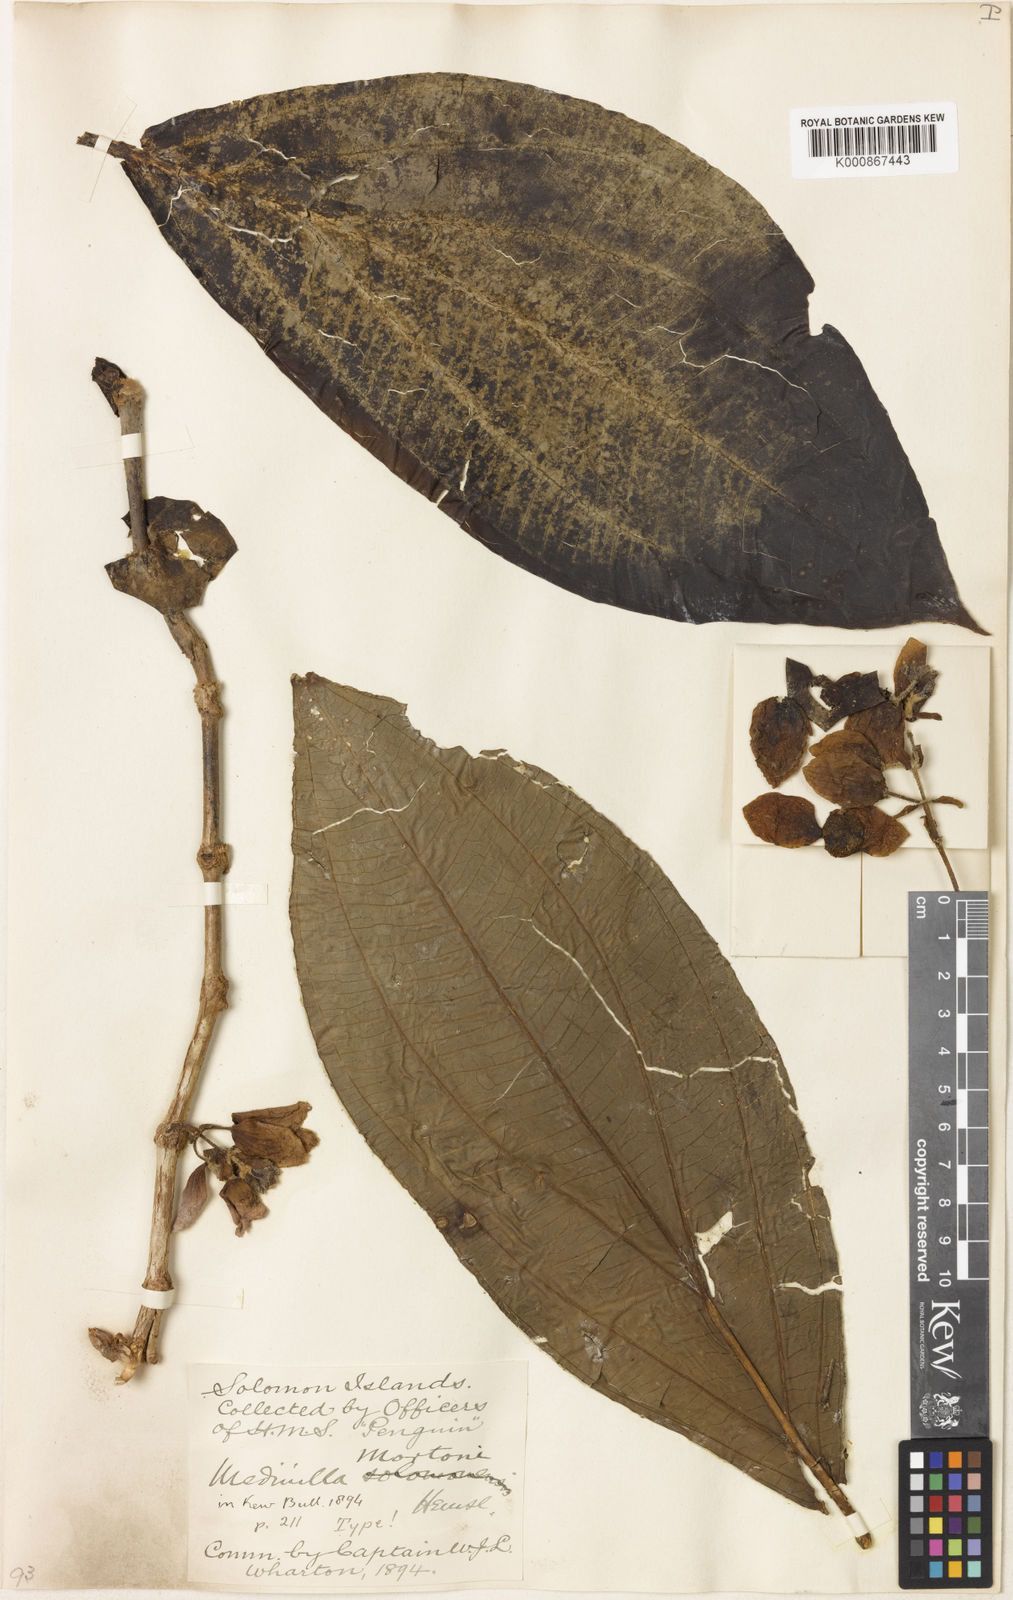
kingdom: Plantae
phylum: Tracheophyta
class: Magnoliopsida
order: Myrtales
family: Melastomataceae
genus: Medinilla
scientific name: Medinilla mortonii
